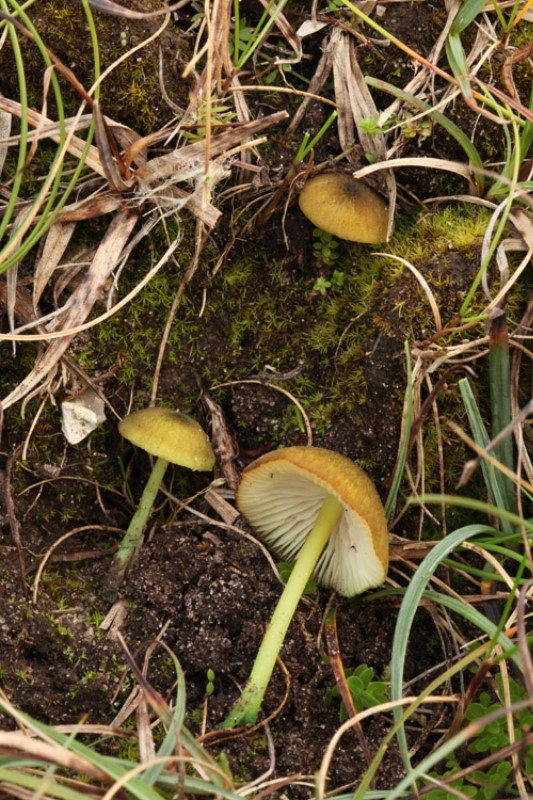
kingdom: Fungi
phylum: Basidiomycota
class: Agaricomycetes
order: Agaricales
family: Entolomataceae
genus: Entoloma
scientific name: Entoloma incanum
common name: grøngul rødblad
